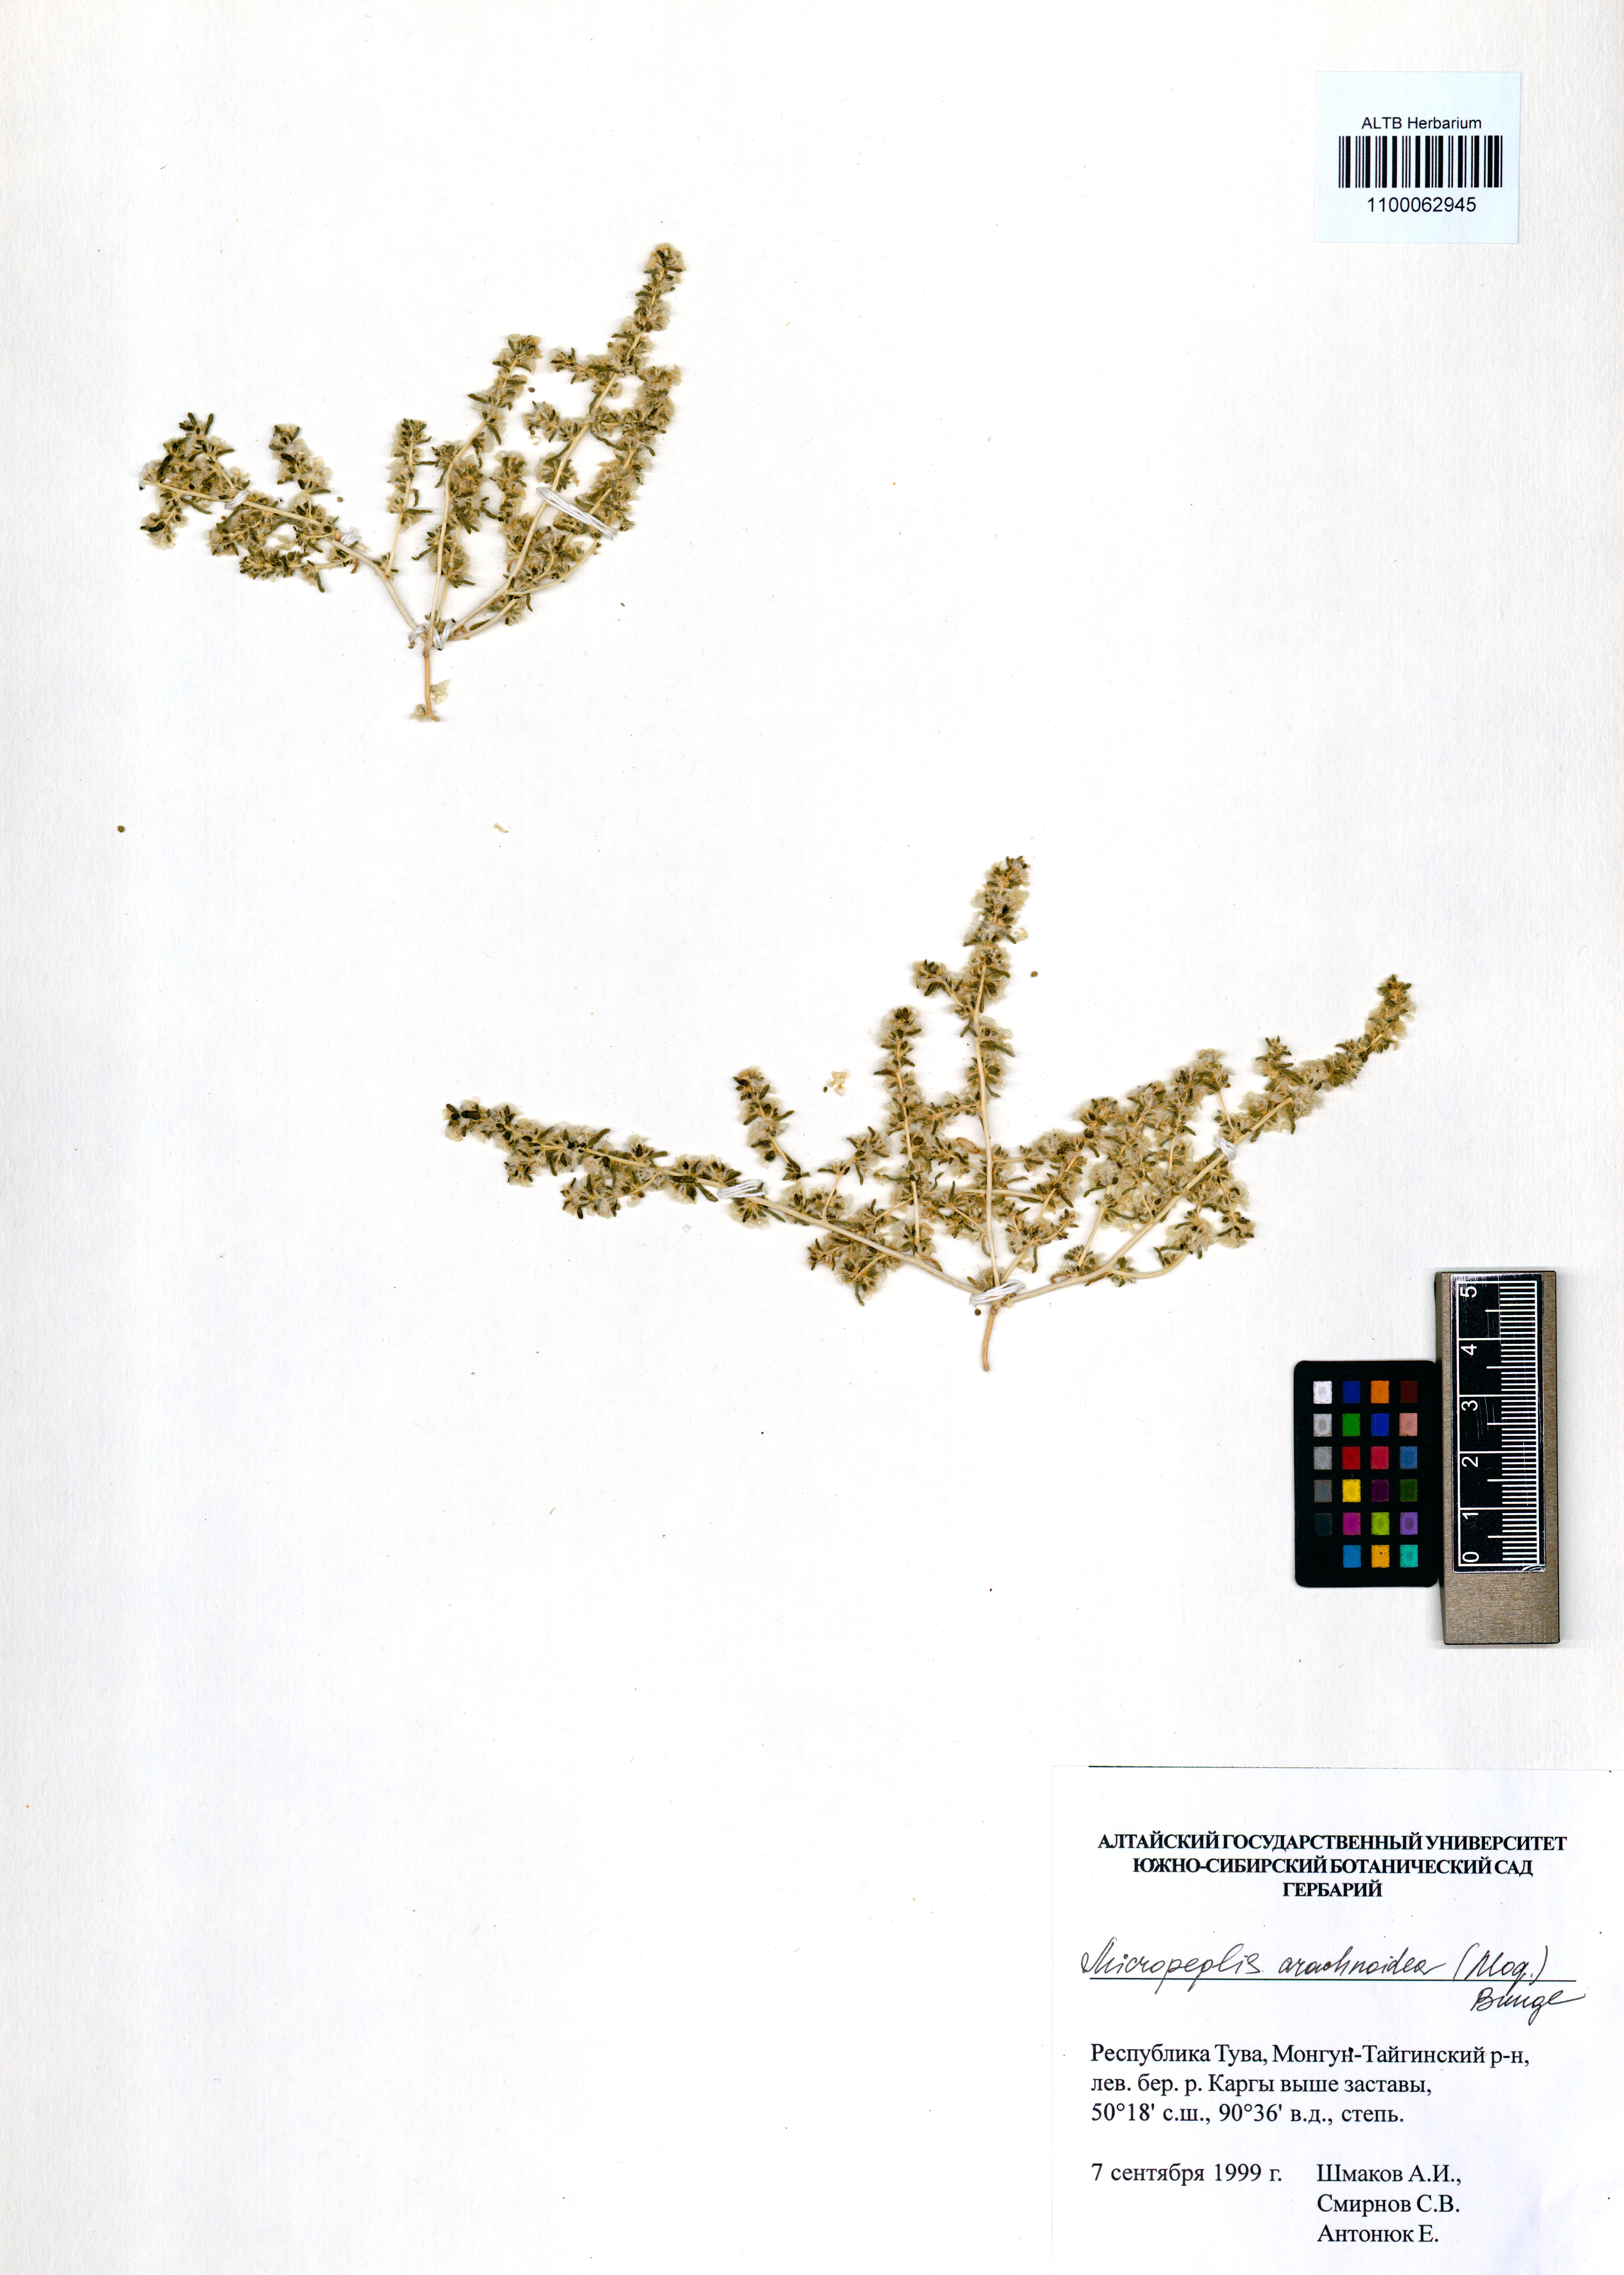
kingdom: Plantae
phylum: Tracheophyta
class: Magnoliopsida
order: Caryophyllales
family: Amaranthaceae
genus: Halogeton
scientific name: Halogeton arachnoideus
